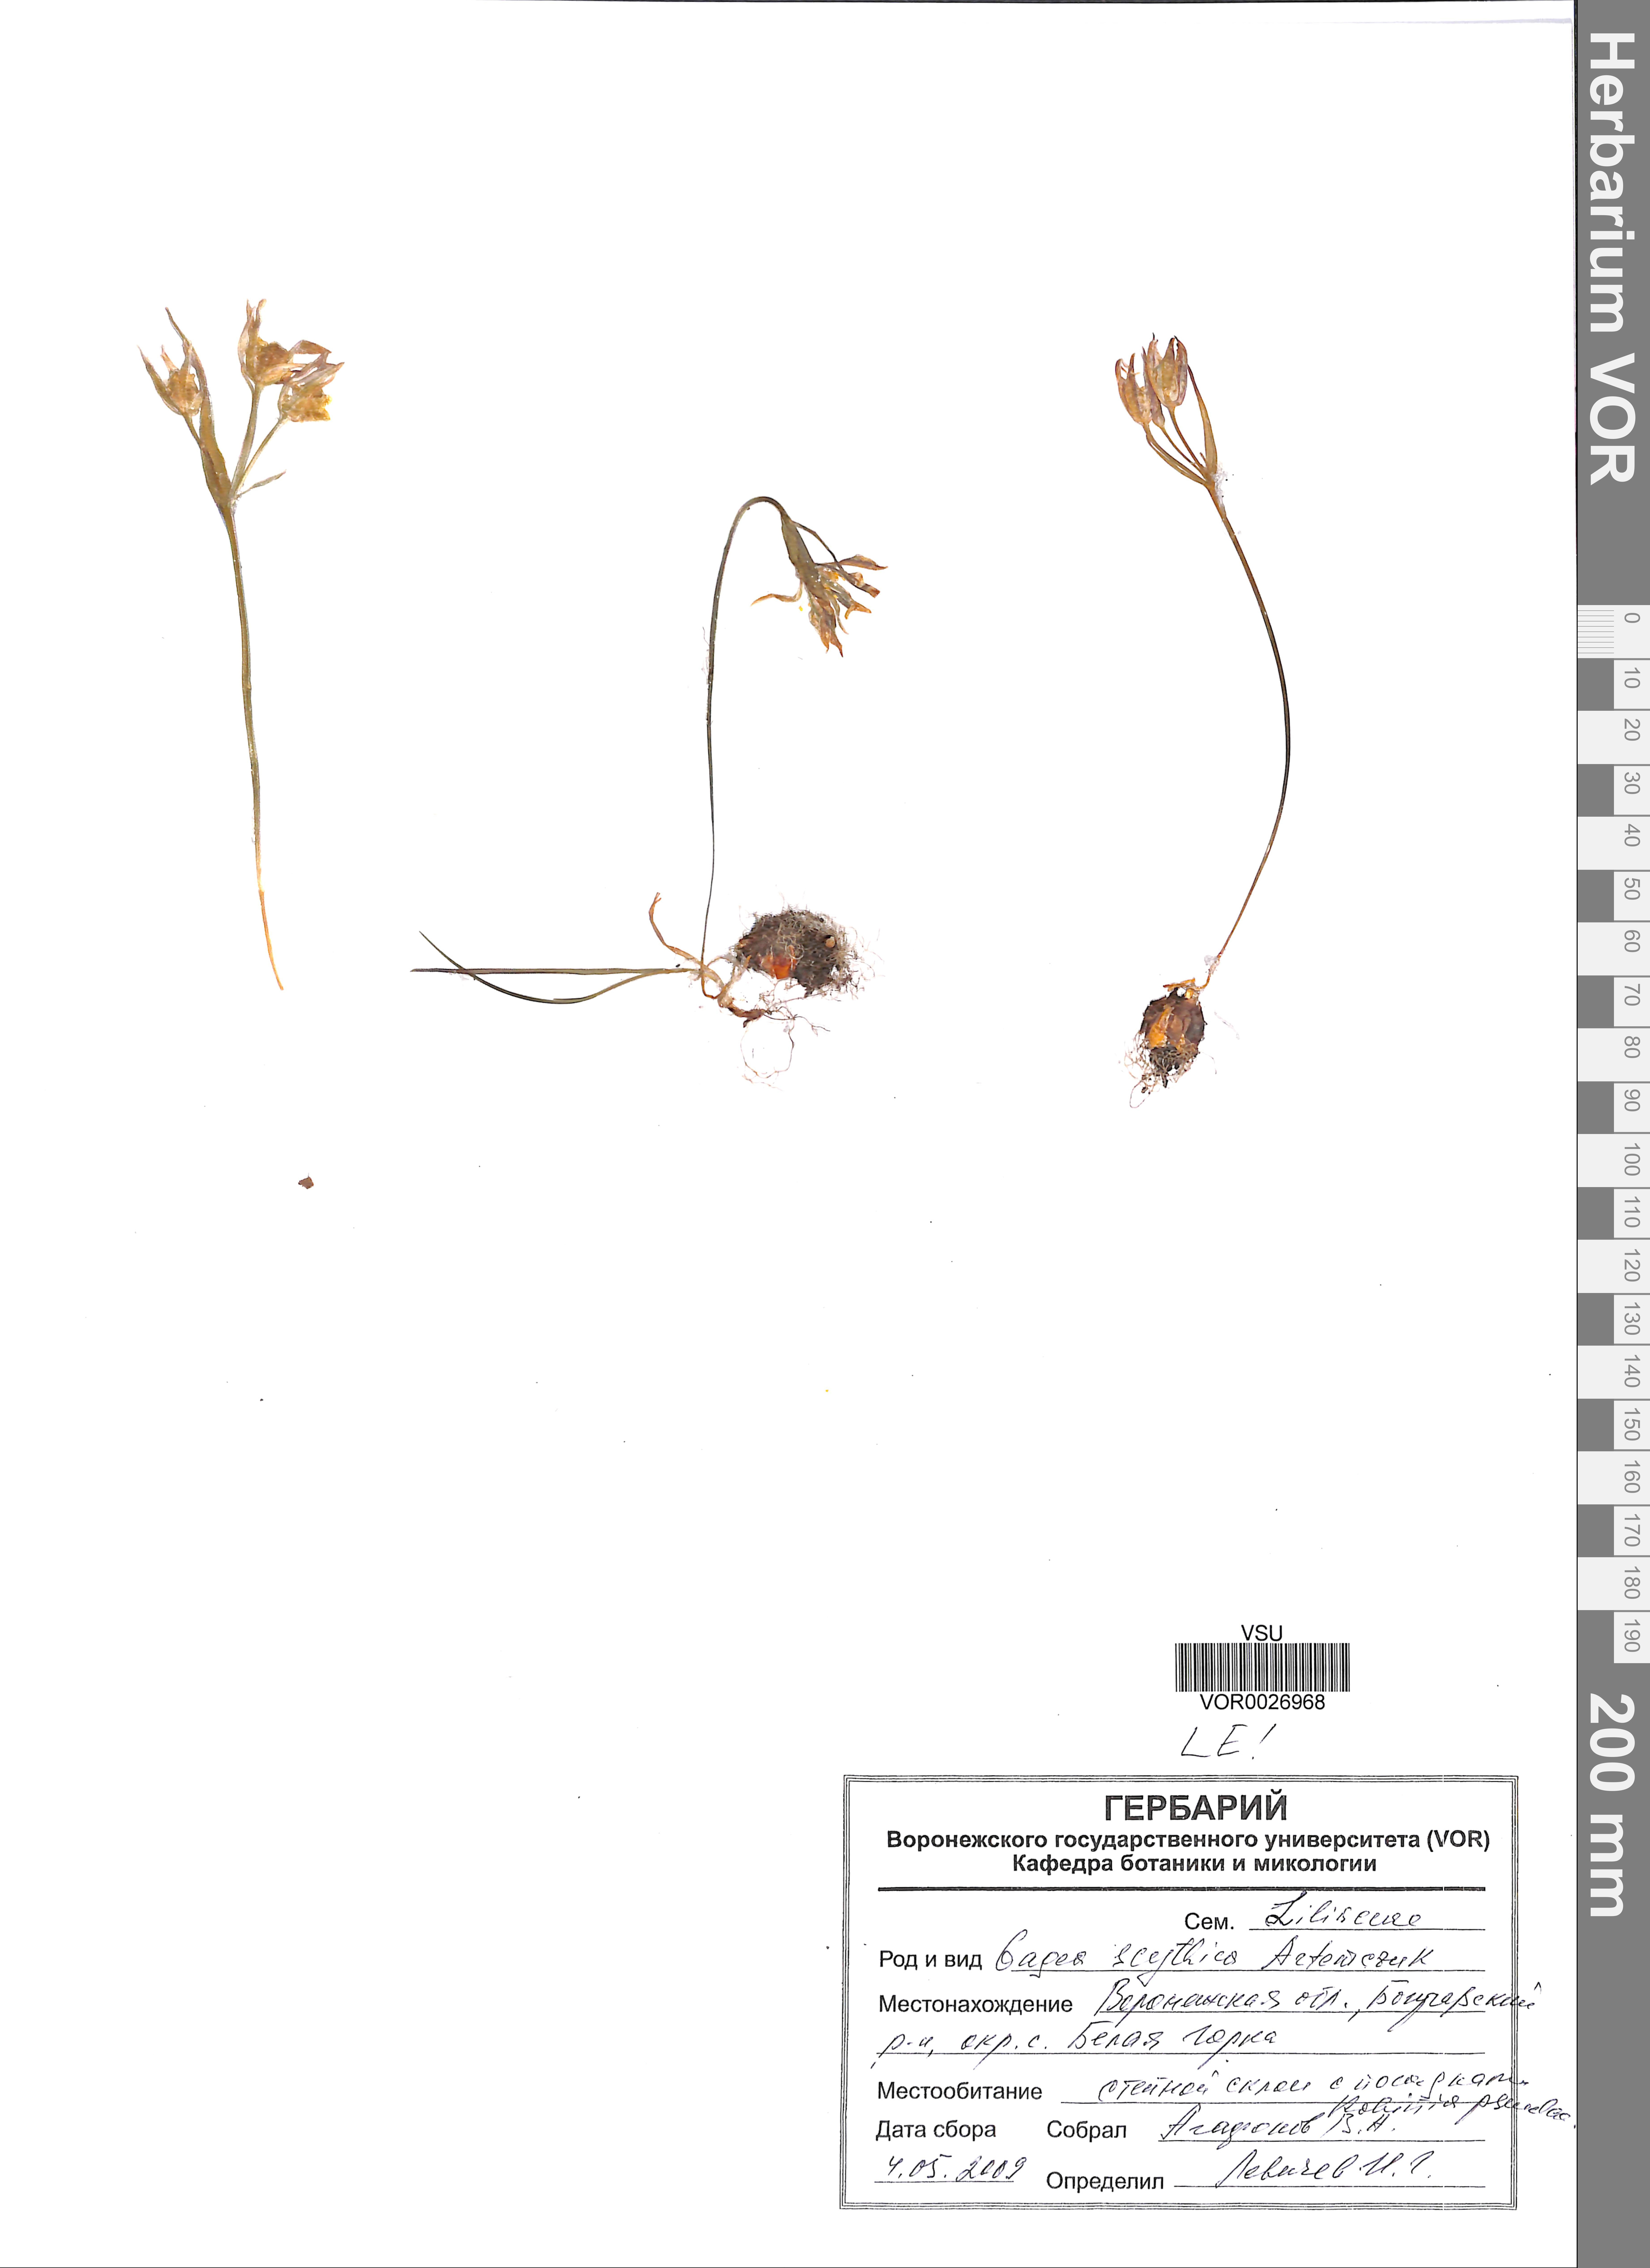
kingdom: Plantae
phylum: Tracheophyta
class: Liliopsida
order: Liliales
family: Liliaceae
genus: Gagea
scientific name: Gagea scythica
